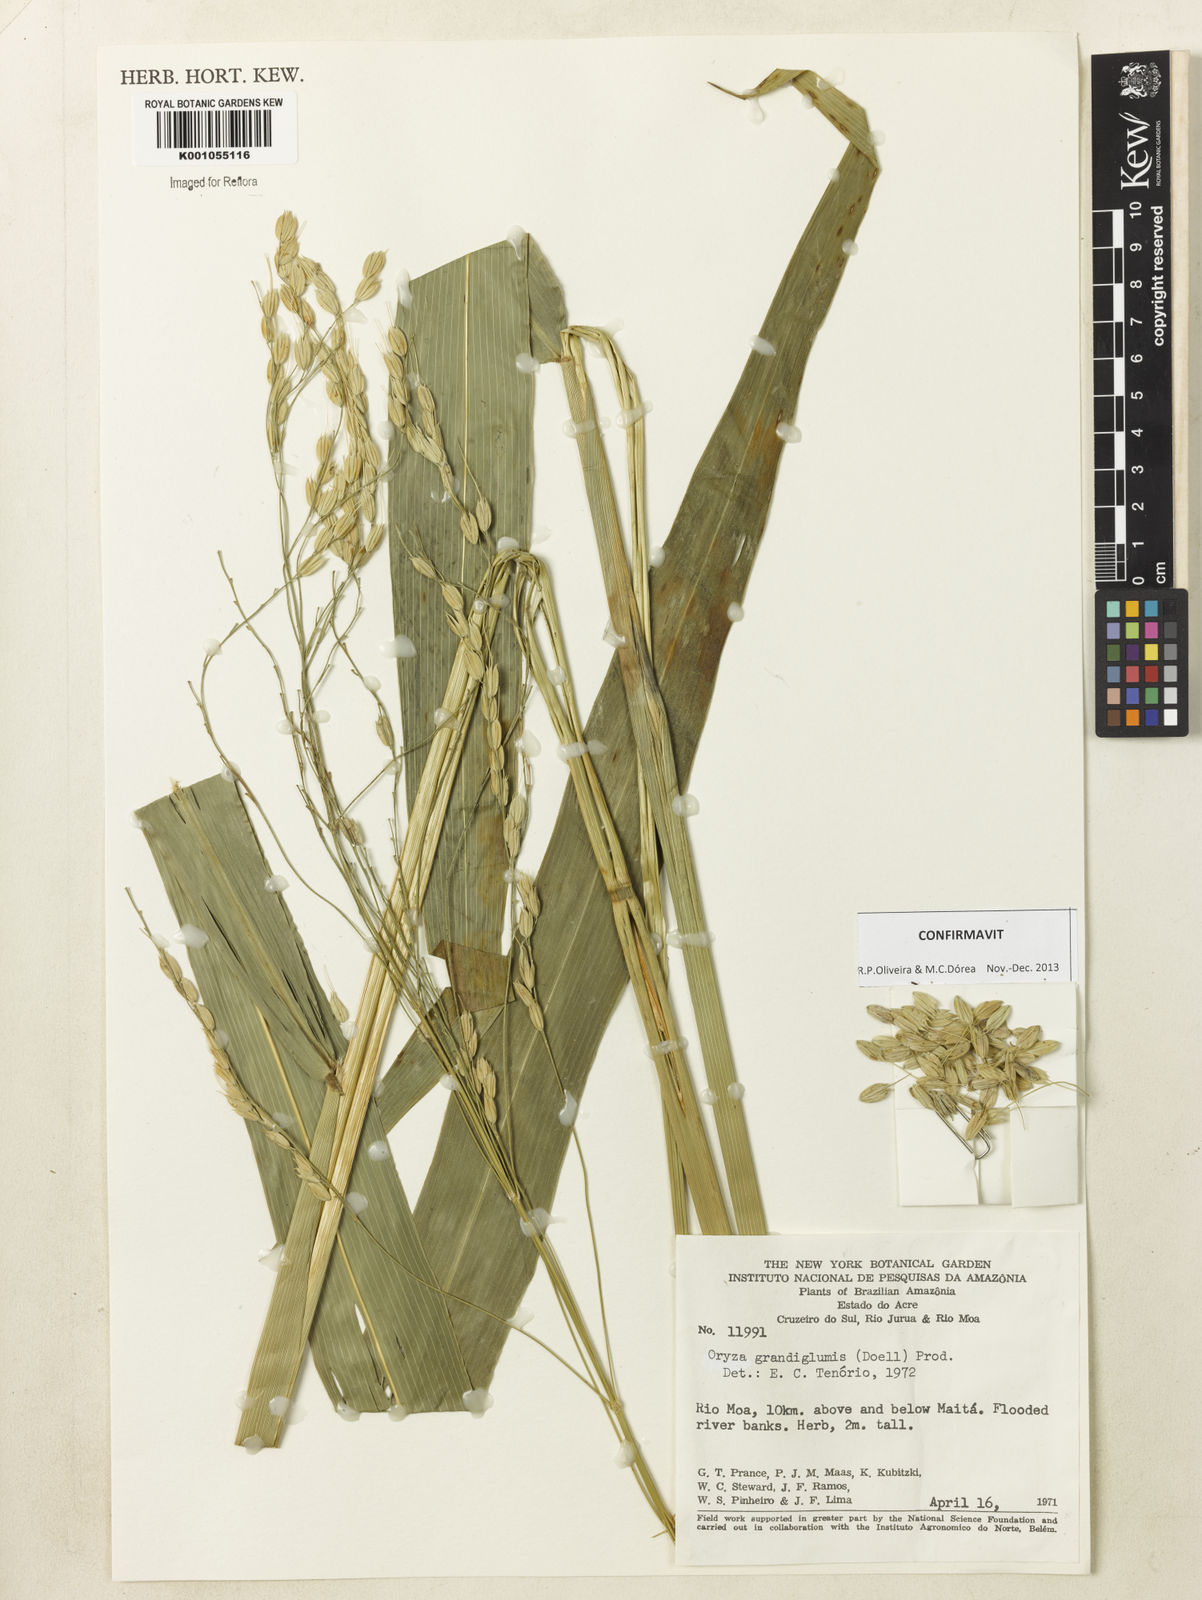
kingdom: Plantae
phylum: Tracheophyta
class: Liliopsida
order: Poales
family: Poaceae
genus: Oryza
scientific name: Oryza
